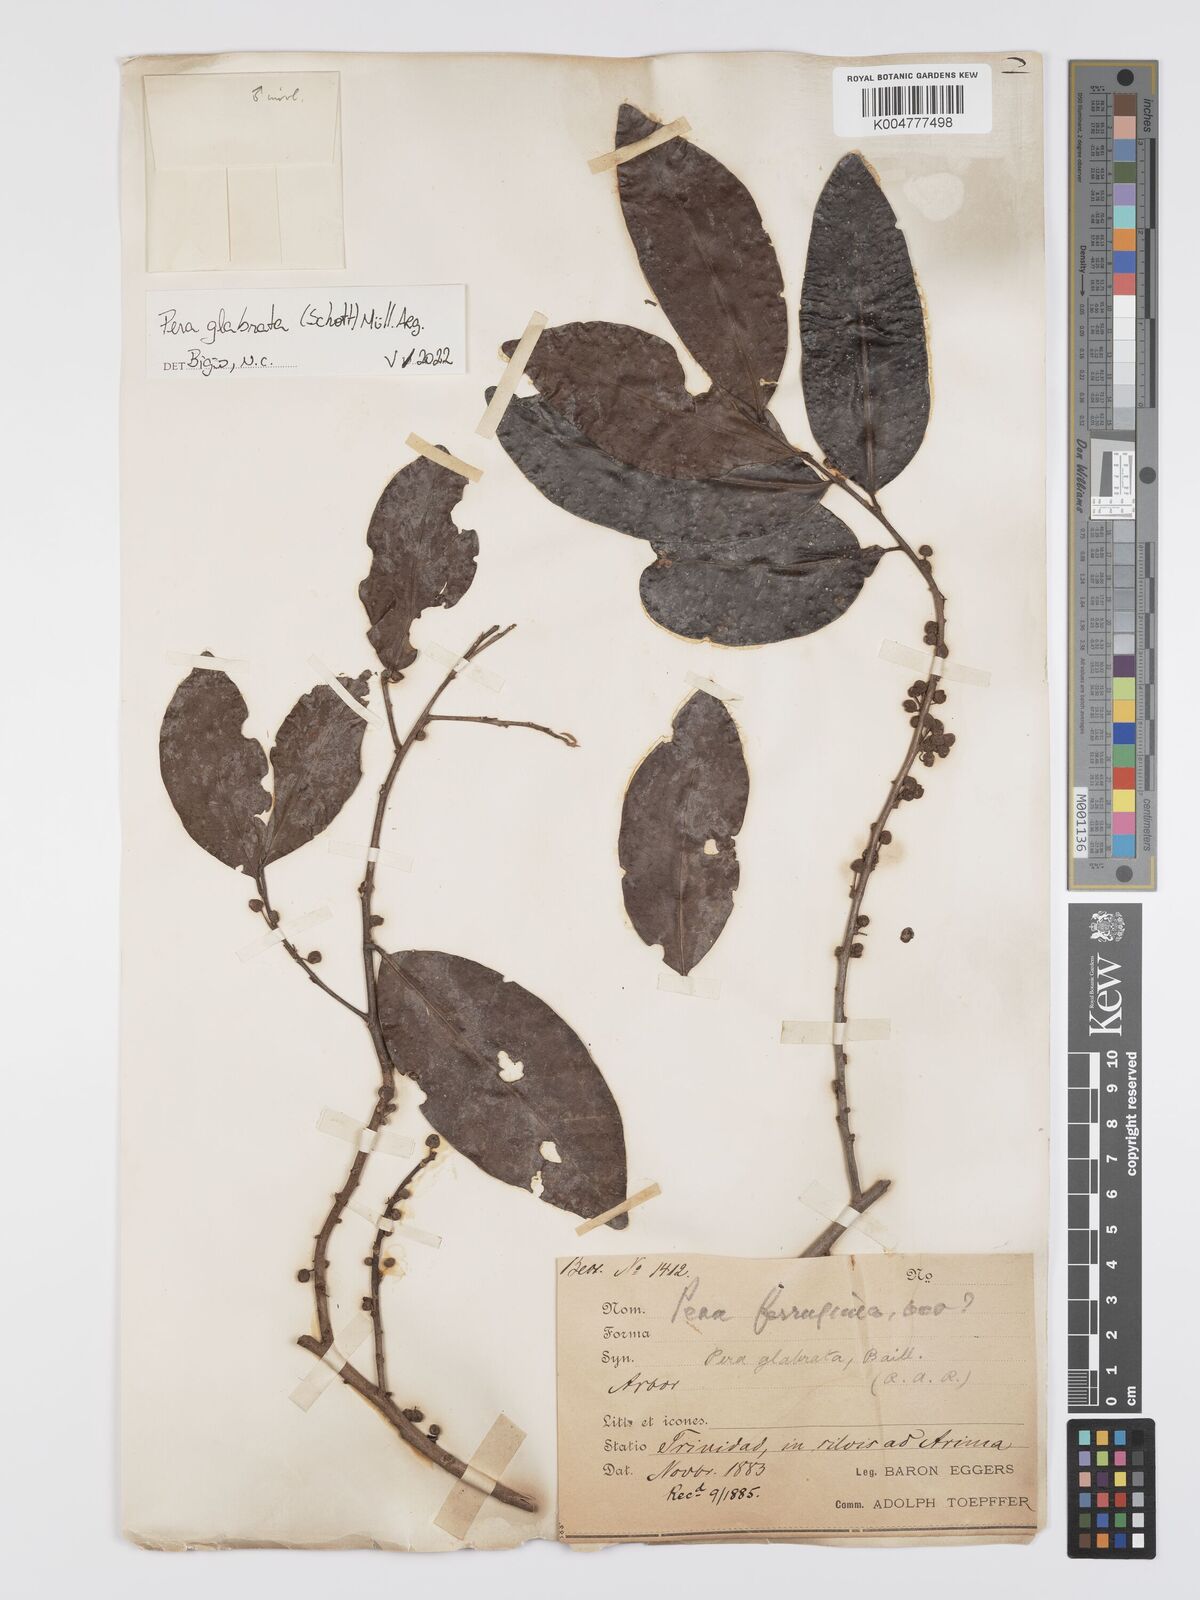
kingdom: Plantae
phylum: Tracheophyta
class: Magnoliopsida
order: Malpighiales
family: Peraceae
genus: Pera
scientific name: Pera glabrata
